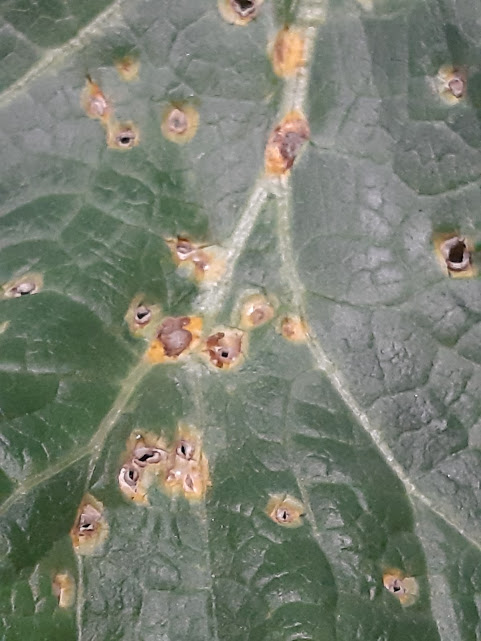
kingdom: Fungi
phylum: Basidiomycota
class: Pucciniomycetes
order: Pucciniales
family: Pucciniaceae
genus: Puccinia
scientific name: Puccinia malvacearum
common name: stokrose-tvecellerust
